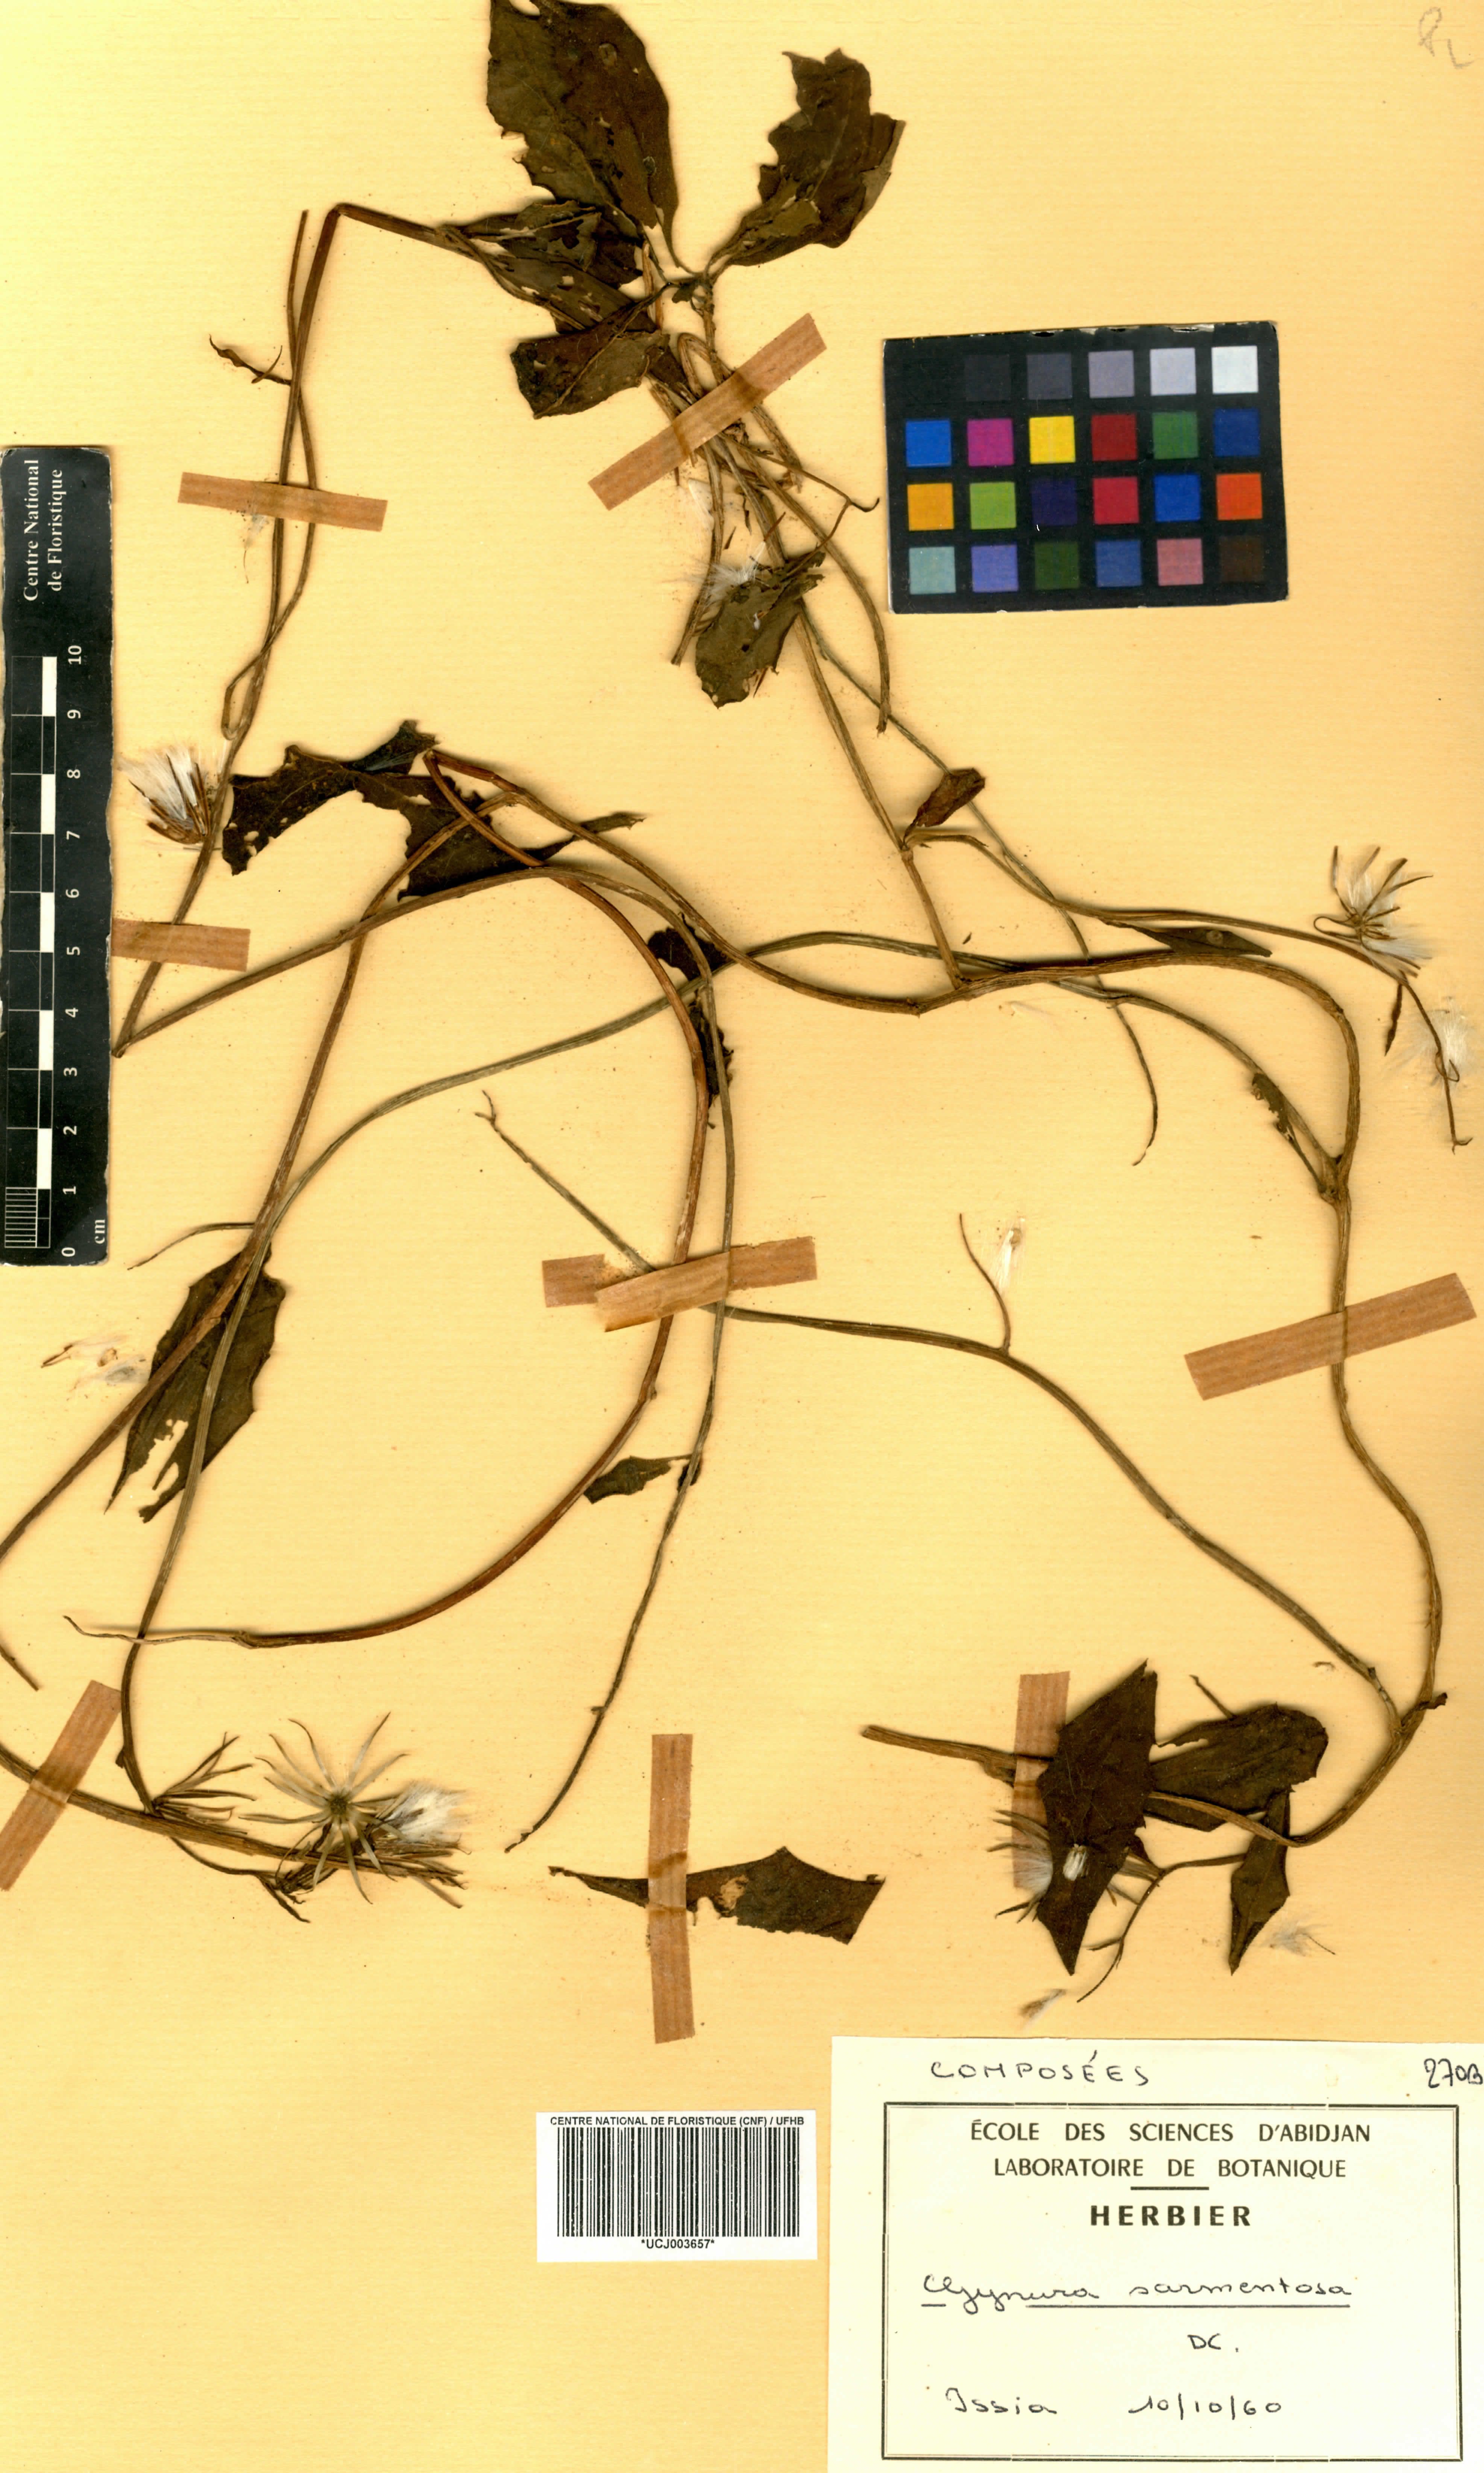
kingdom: Plantae
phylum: Tracheophyta
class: Magnoliopsida
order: Asterales
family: Asteraceae
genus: Gynura
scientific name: Gynura procumbens
